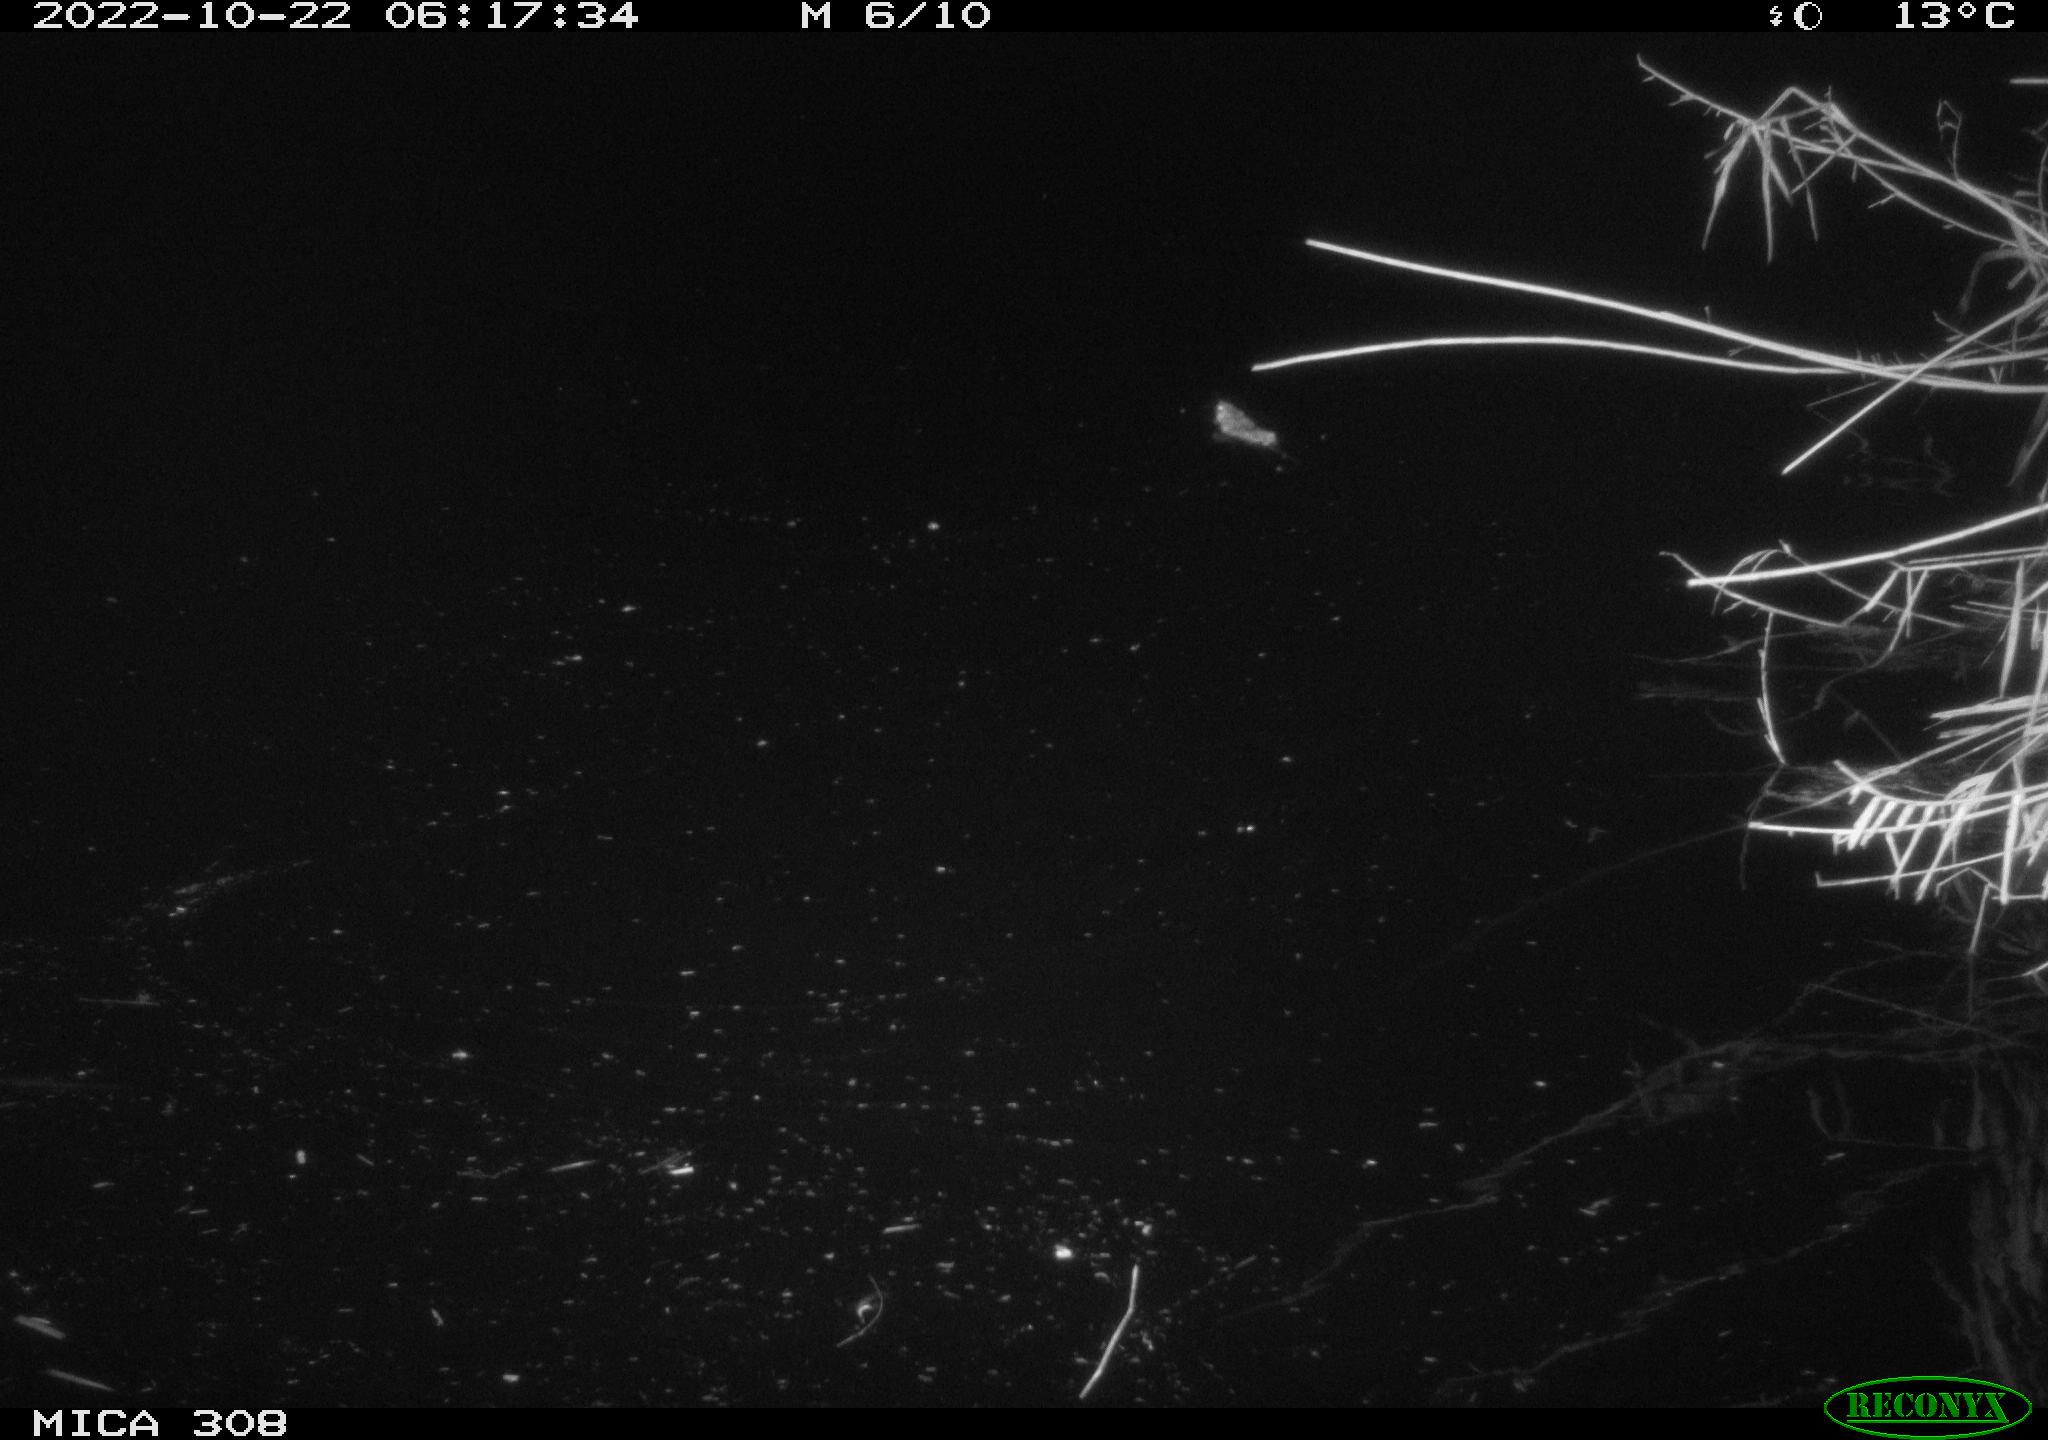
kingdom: Animalia
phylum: Chordata
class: Mammalia
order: Rodentia
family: Muridae
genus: Rattus
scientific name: Rattus norvegicus
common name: Brown rat
